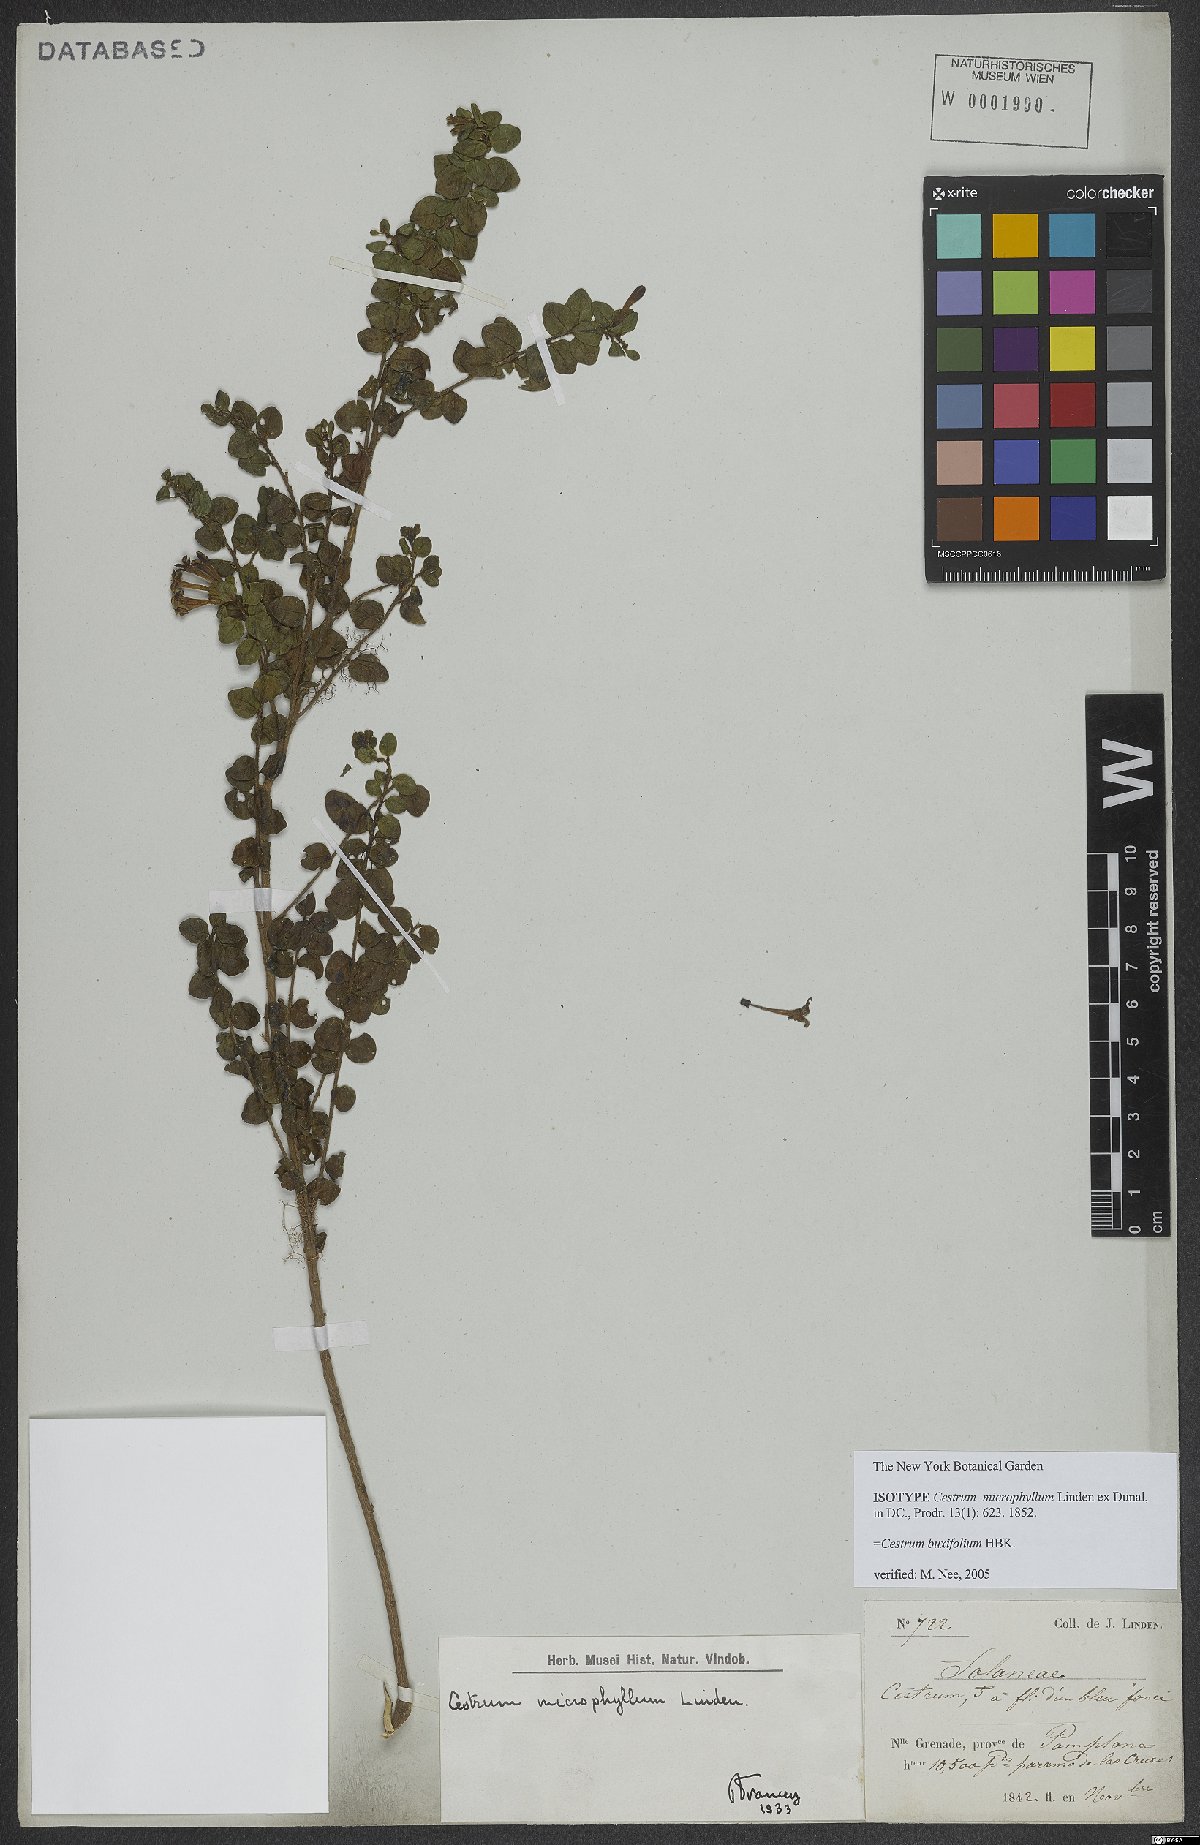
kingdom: Plantae
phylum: Tracheophyta
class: Magnoliopsida
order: Solanales
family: Solanaceae
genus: Cestrum
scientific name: Cestrum buxifolium
